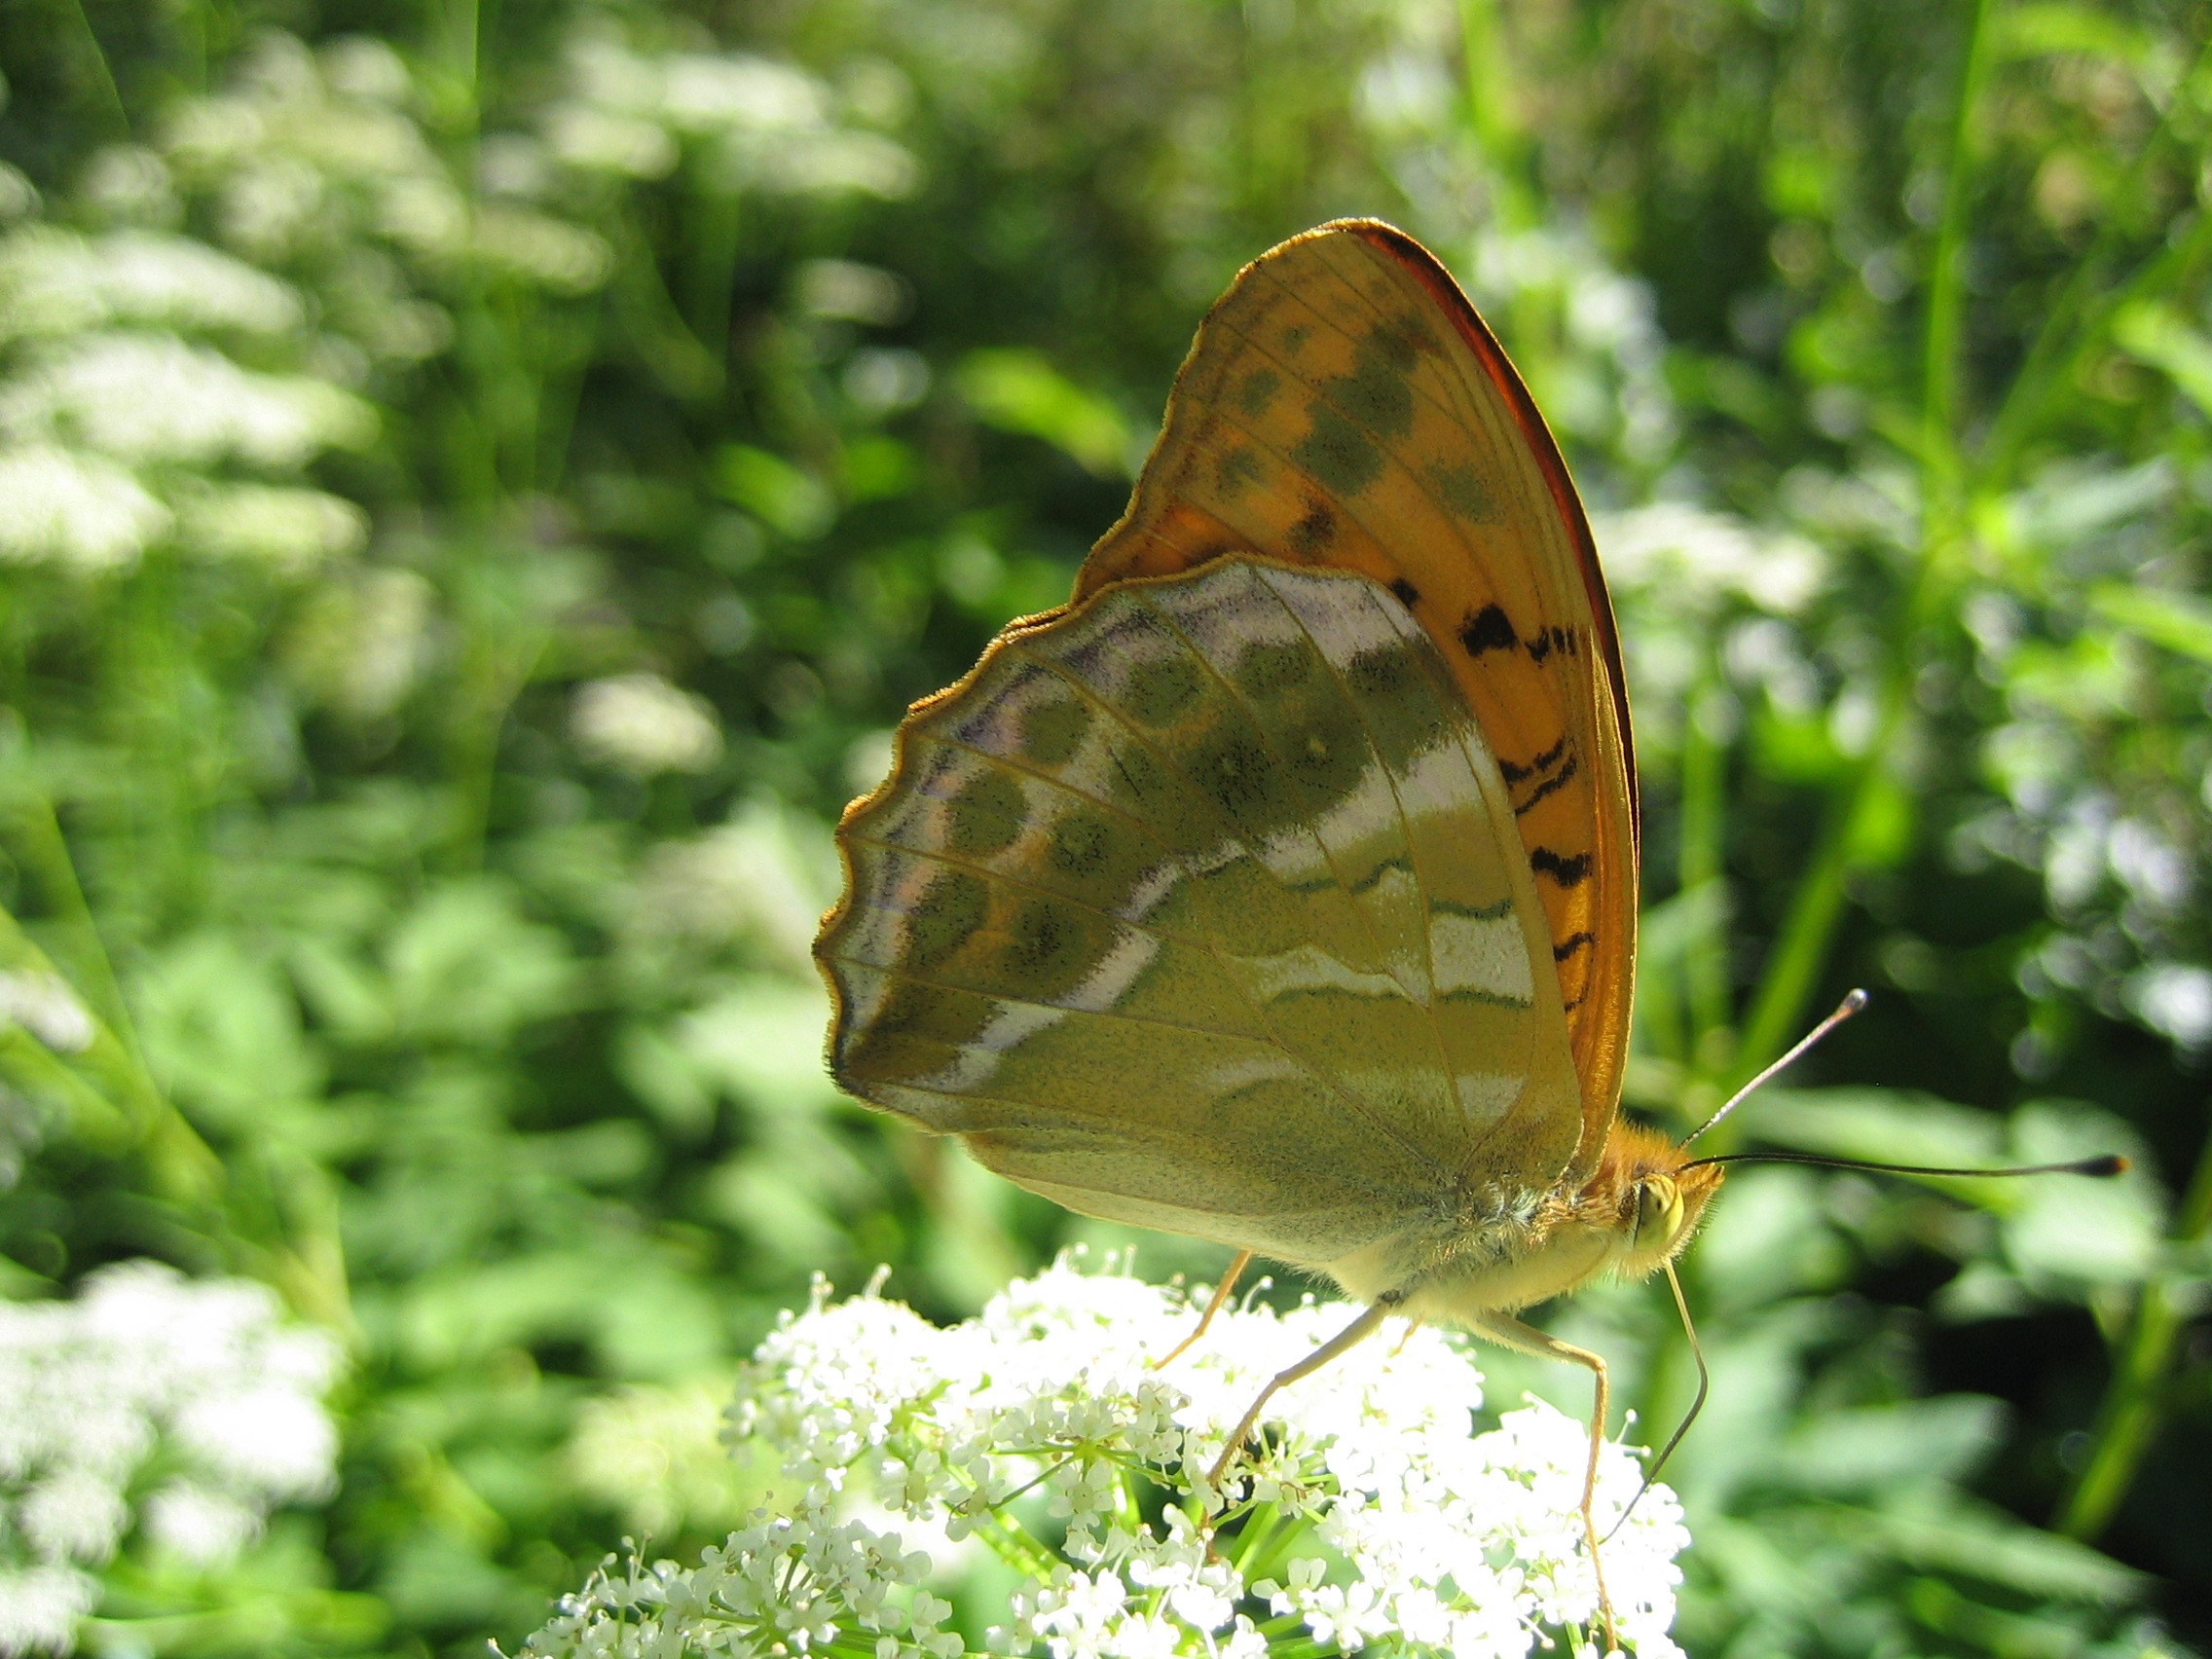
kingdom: Animalia
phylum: Arthropoda
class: Insecta
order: Lepidoptera
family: Nymphalidae
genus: Argynnis
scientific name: Argynnis paphia
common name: Kejserkåbe
